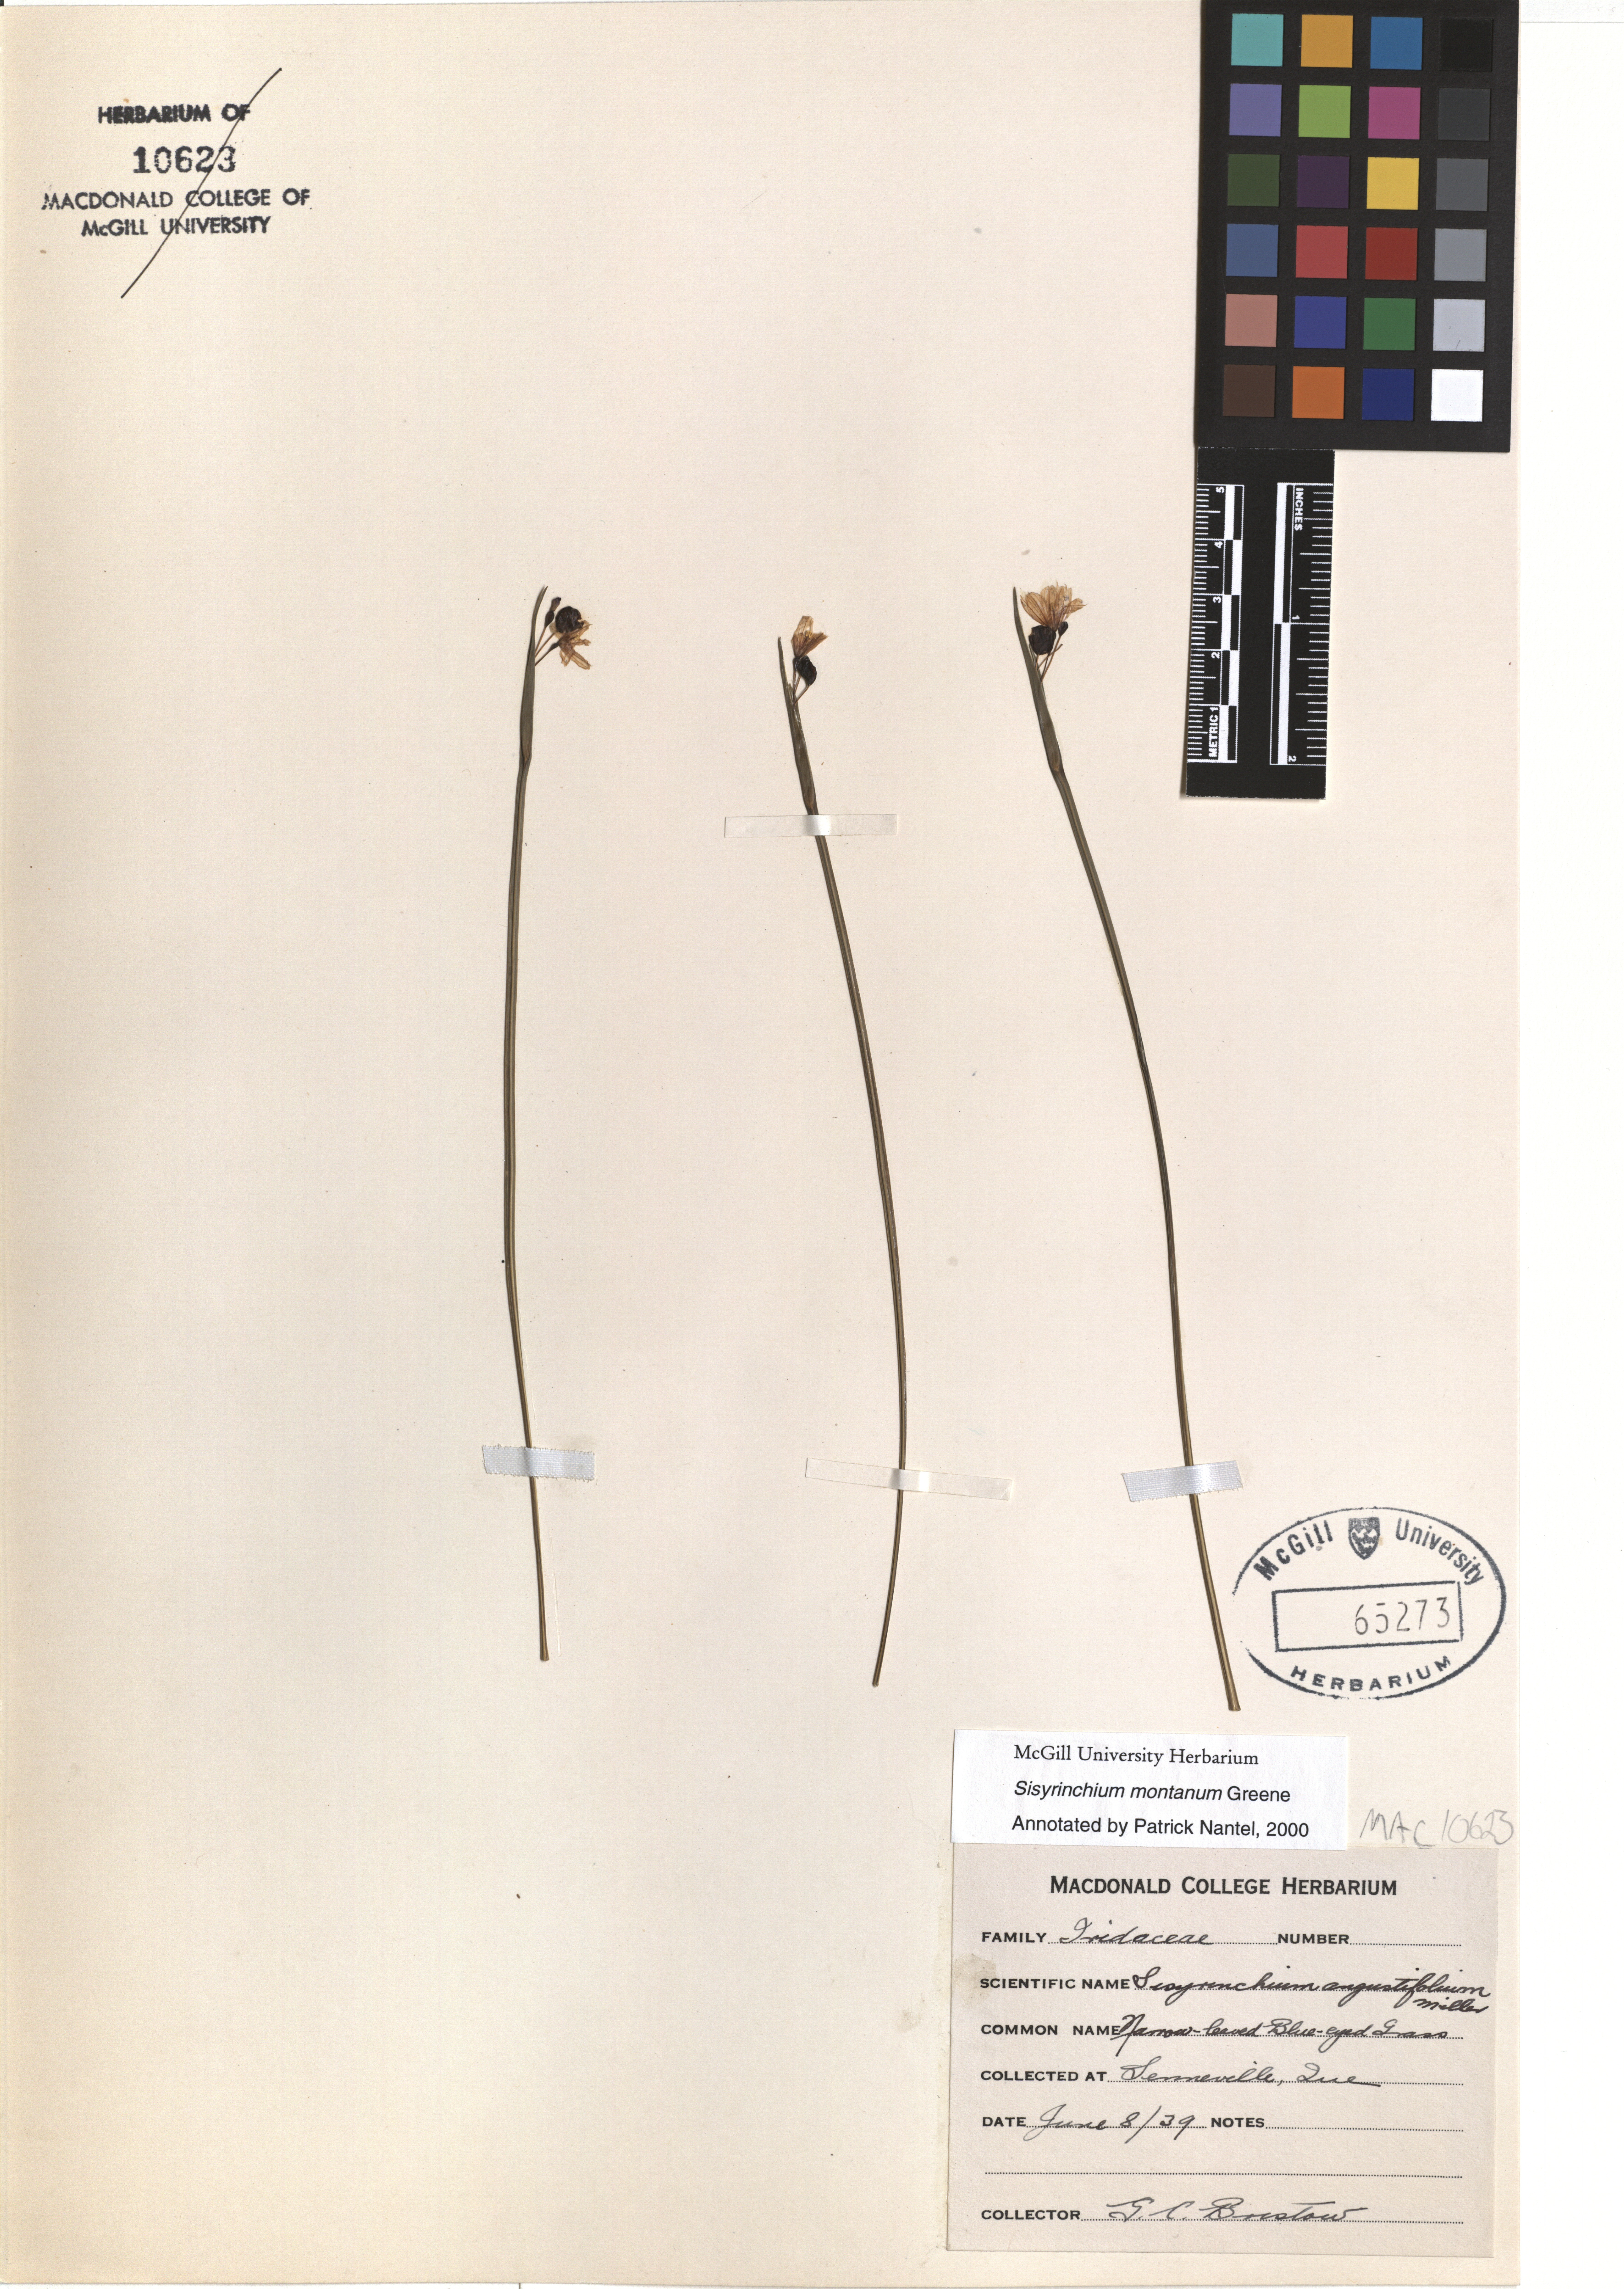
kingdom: Plantae
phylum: Tracheophyta
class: Liliopsida
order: Asparagales
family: Iridaceae
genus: Sisyrinchium
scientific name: Sisyrinchium montanum
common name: American blue-eyed-grass
